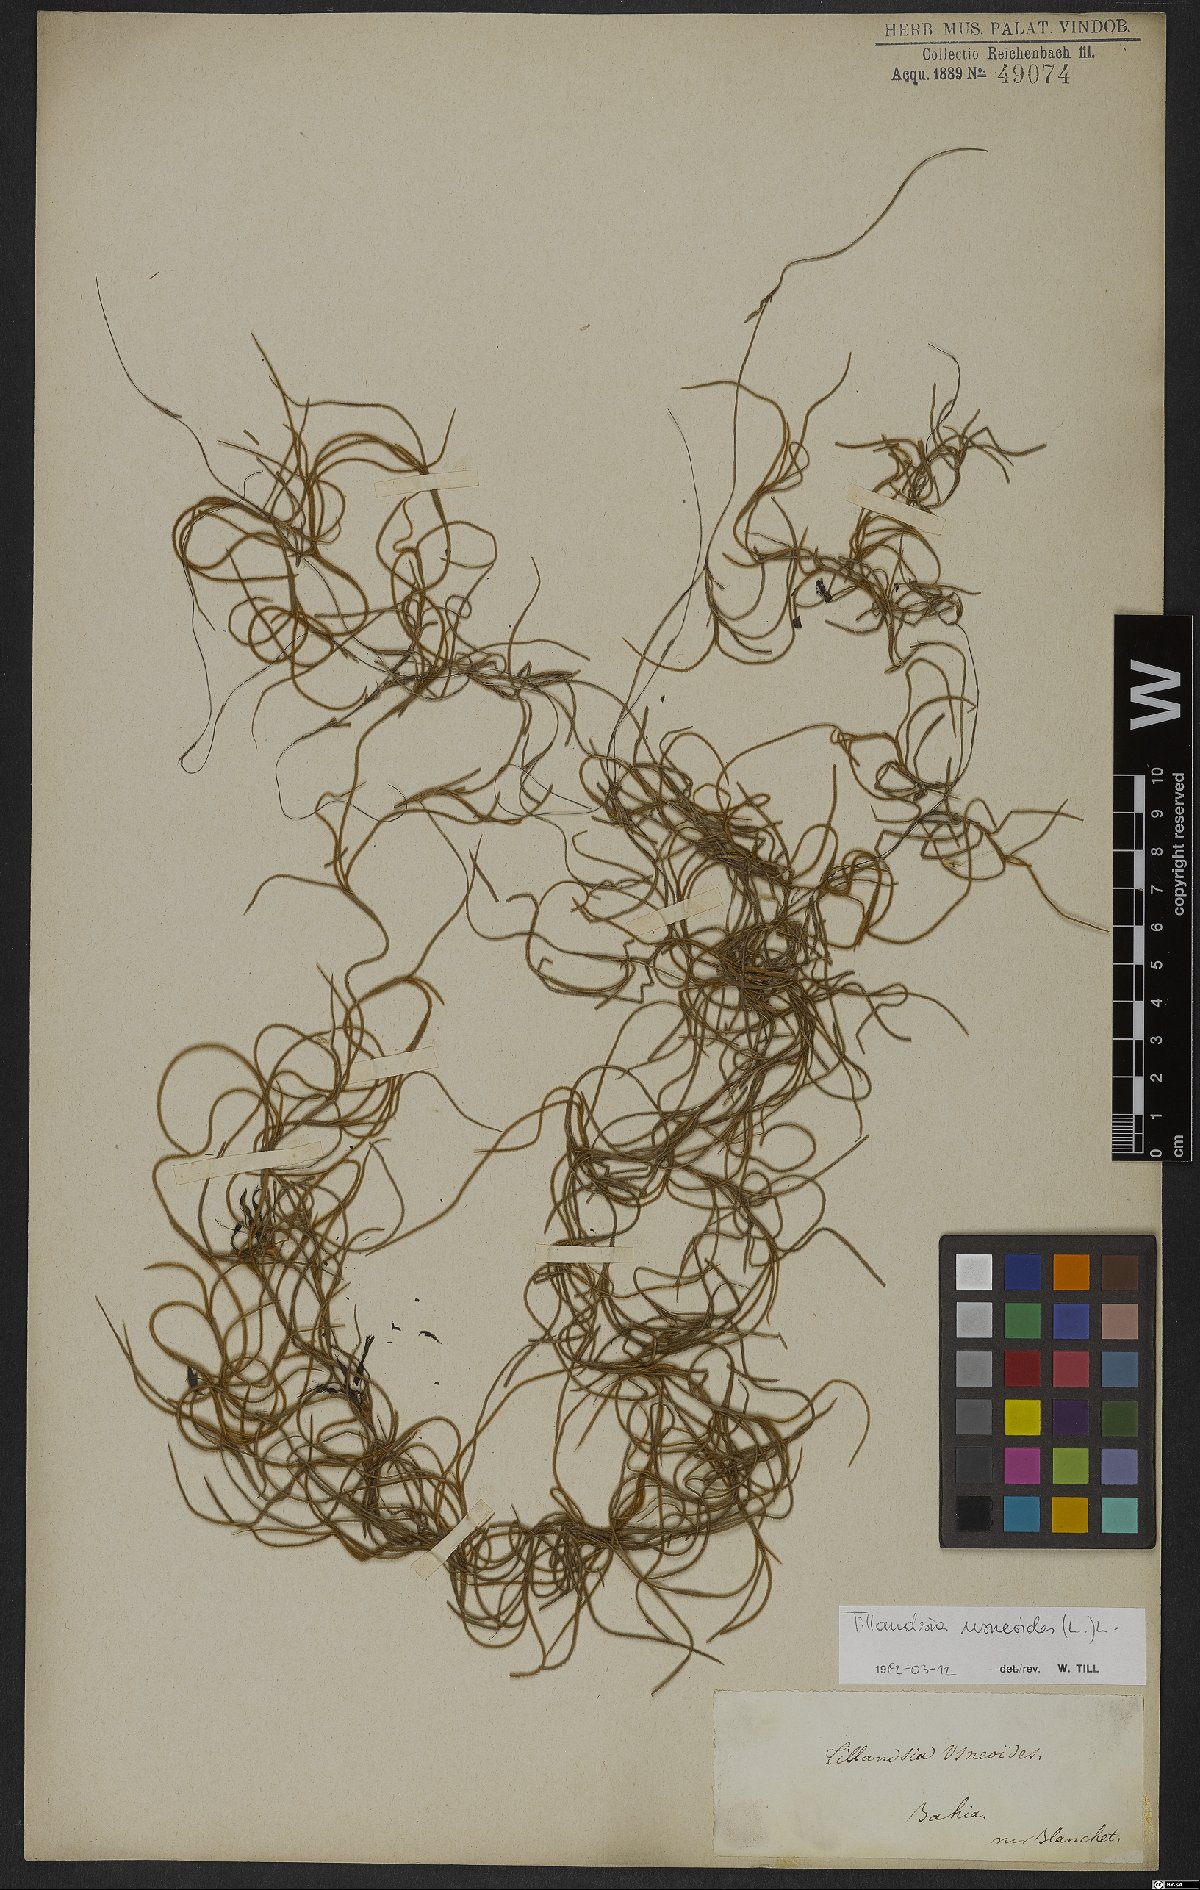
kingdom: Plantae
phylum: Tracheophyta
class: Liliopsida
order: Poales
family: Bromeliaceae
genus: Tillandsia
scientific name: Tillandsia usneoides
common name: Spanish moss
